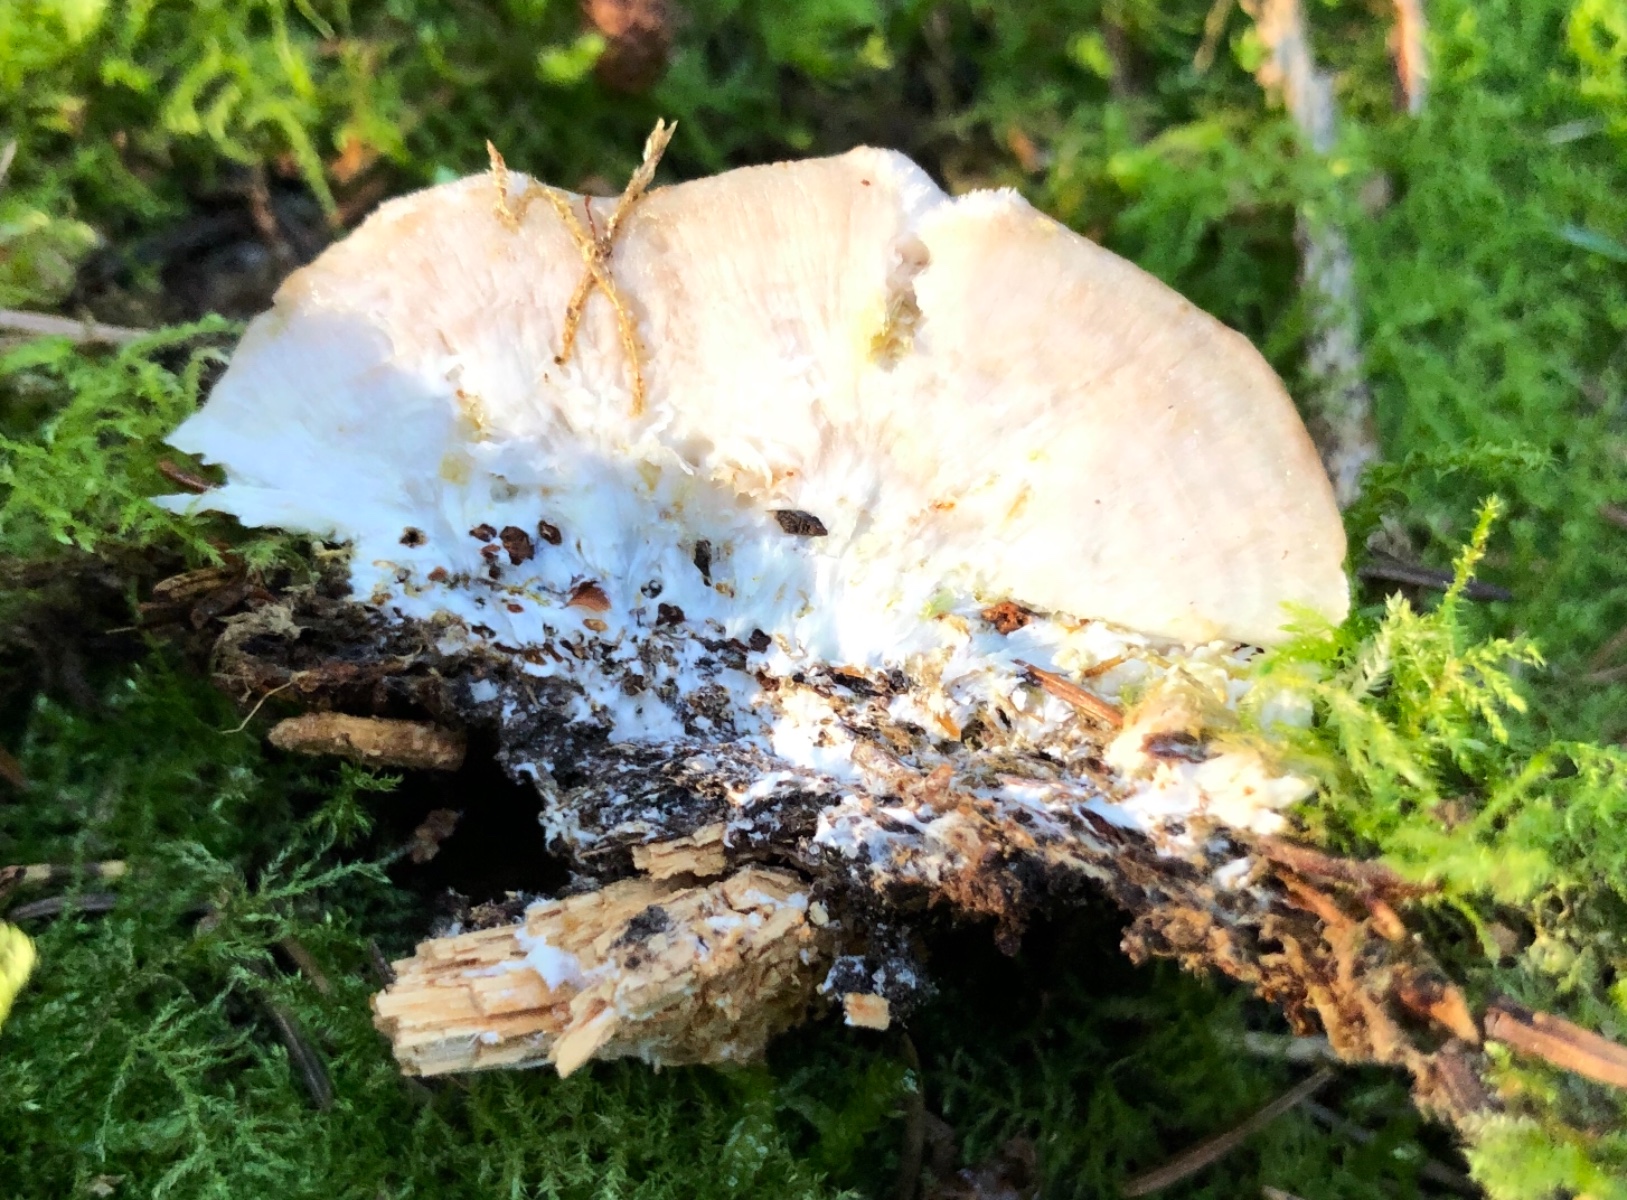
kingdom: Fungi
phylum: Basidiomycota
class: Agaricomycetes
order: Polyporales
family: Dacryobolaceae
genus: Postia
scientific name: Postia ptychogaster
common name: støvende kødporesvamp
